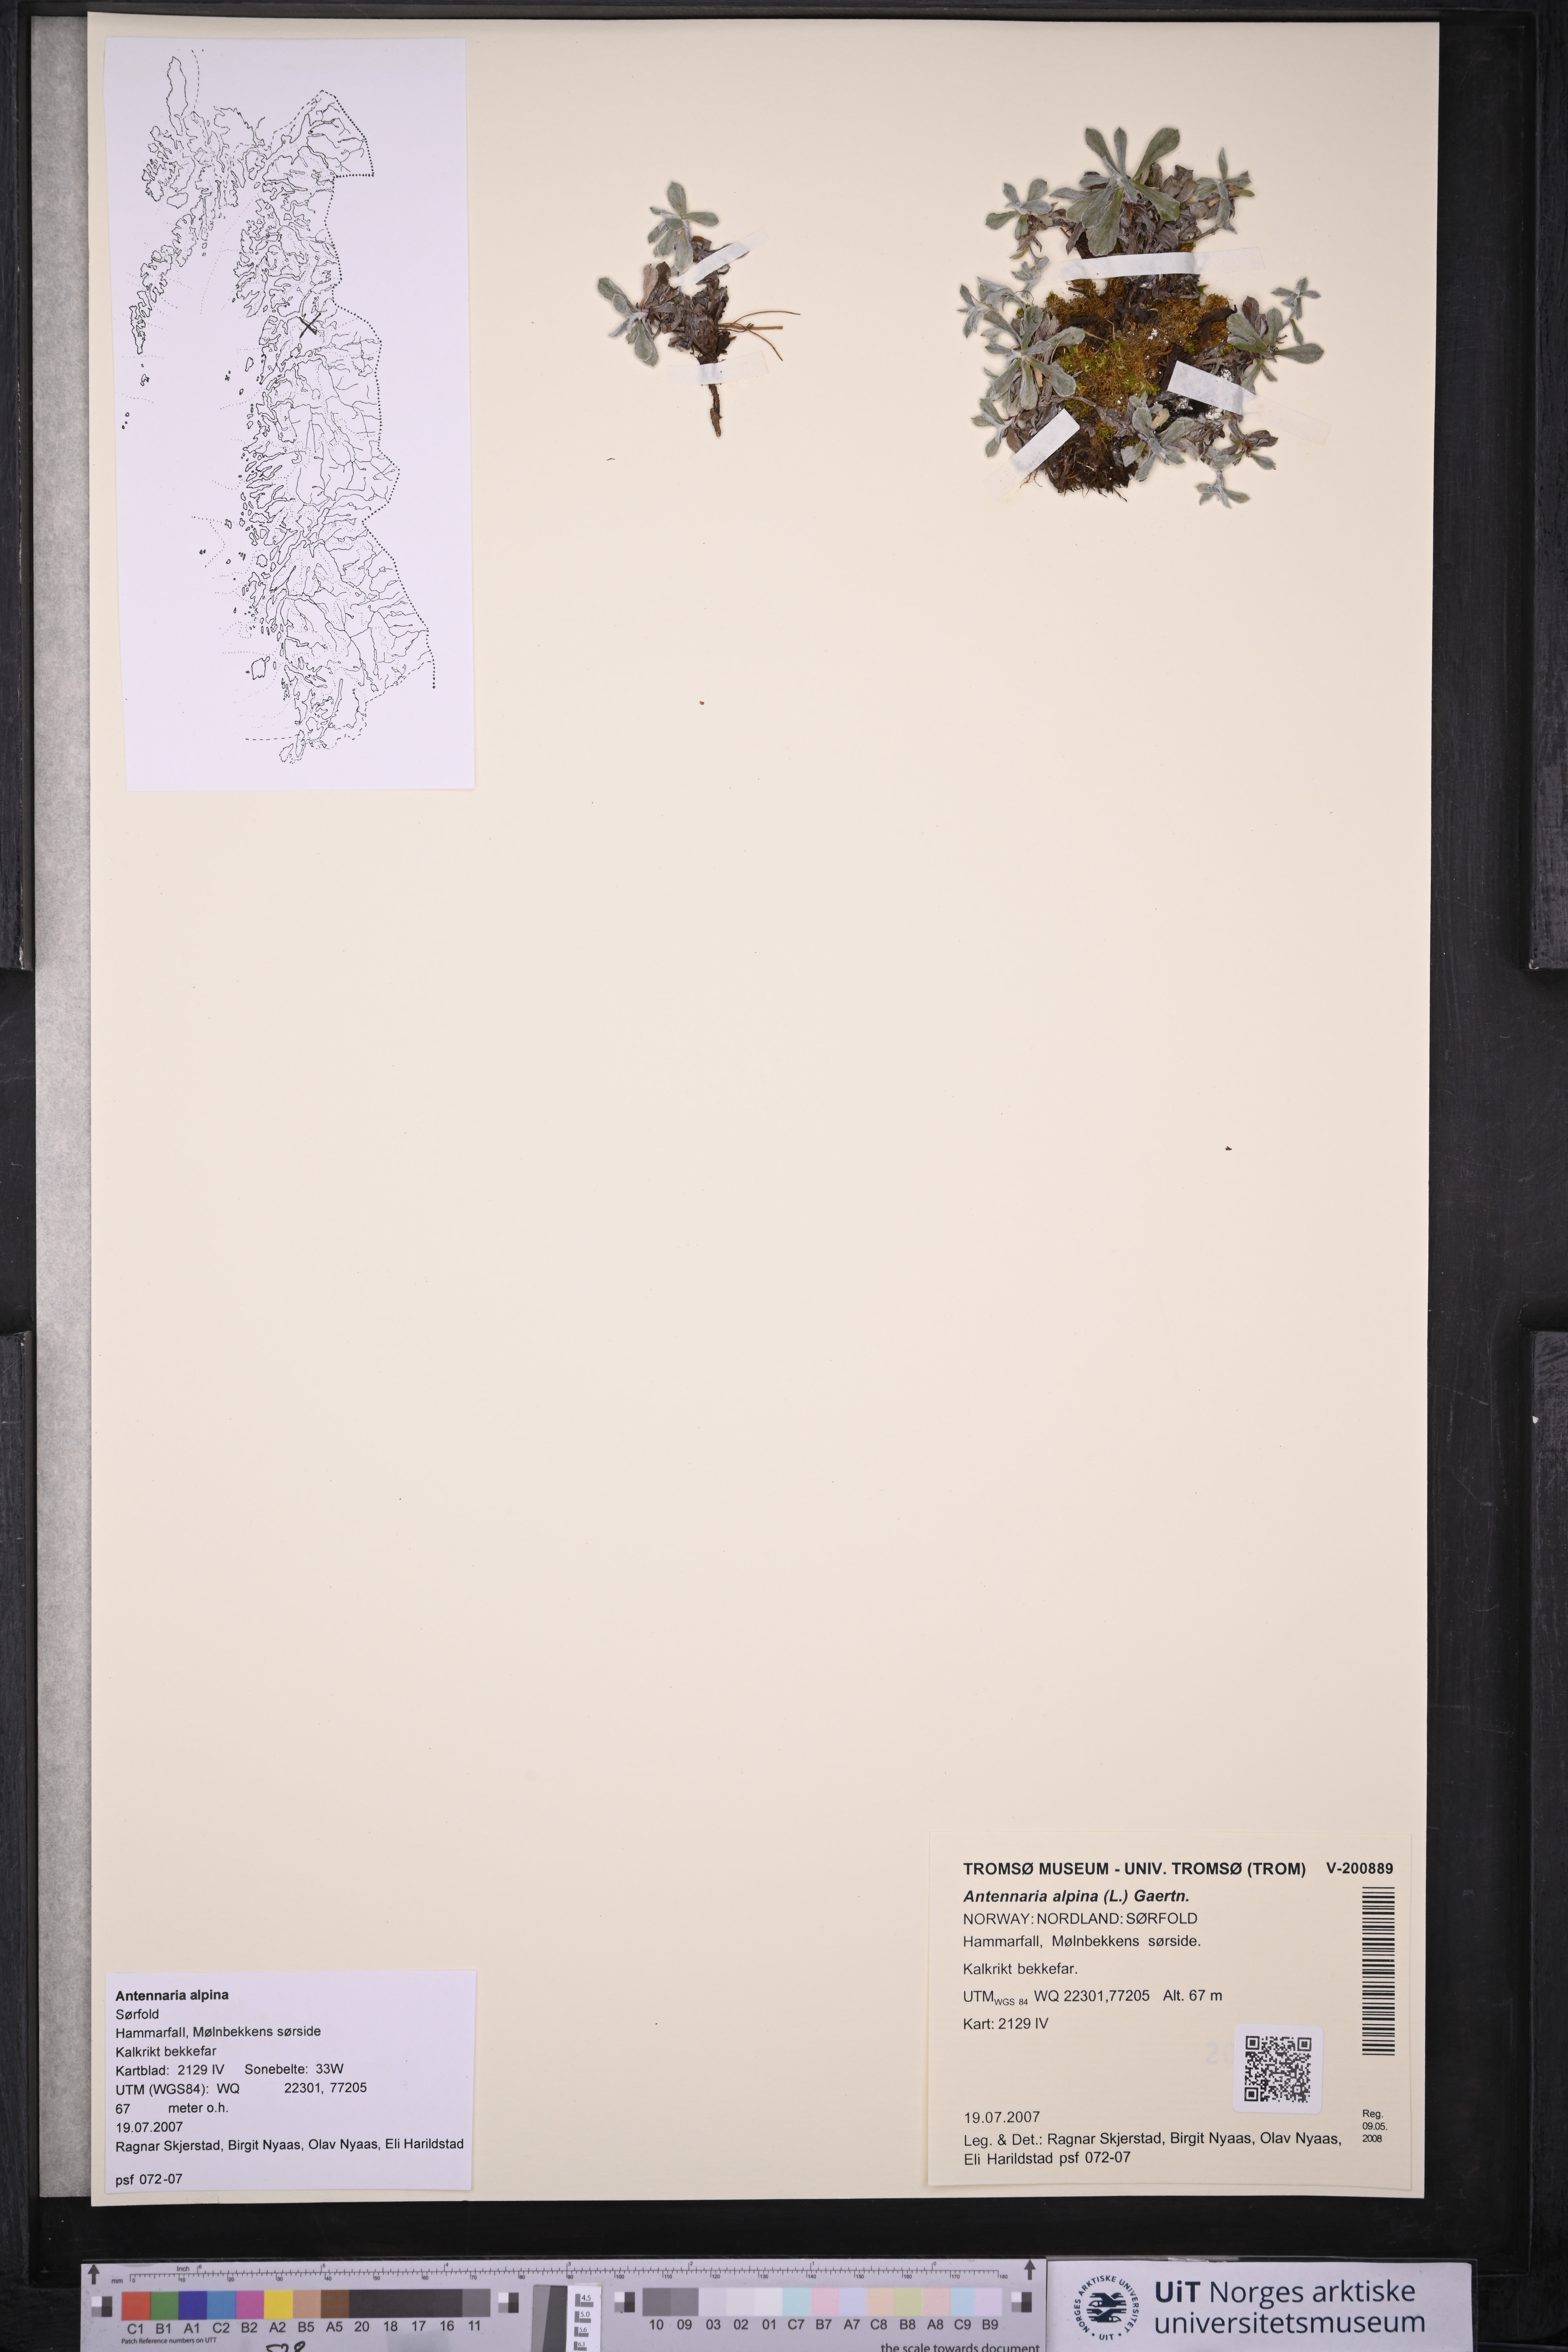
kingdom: Plantae
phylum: Tracheophyta
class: Magnoliopsida
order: Asterales
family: Asteraceae
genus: Antennaria
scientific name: Antennaria alpina
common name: Alpine pussytoes
